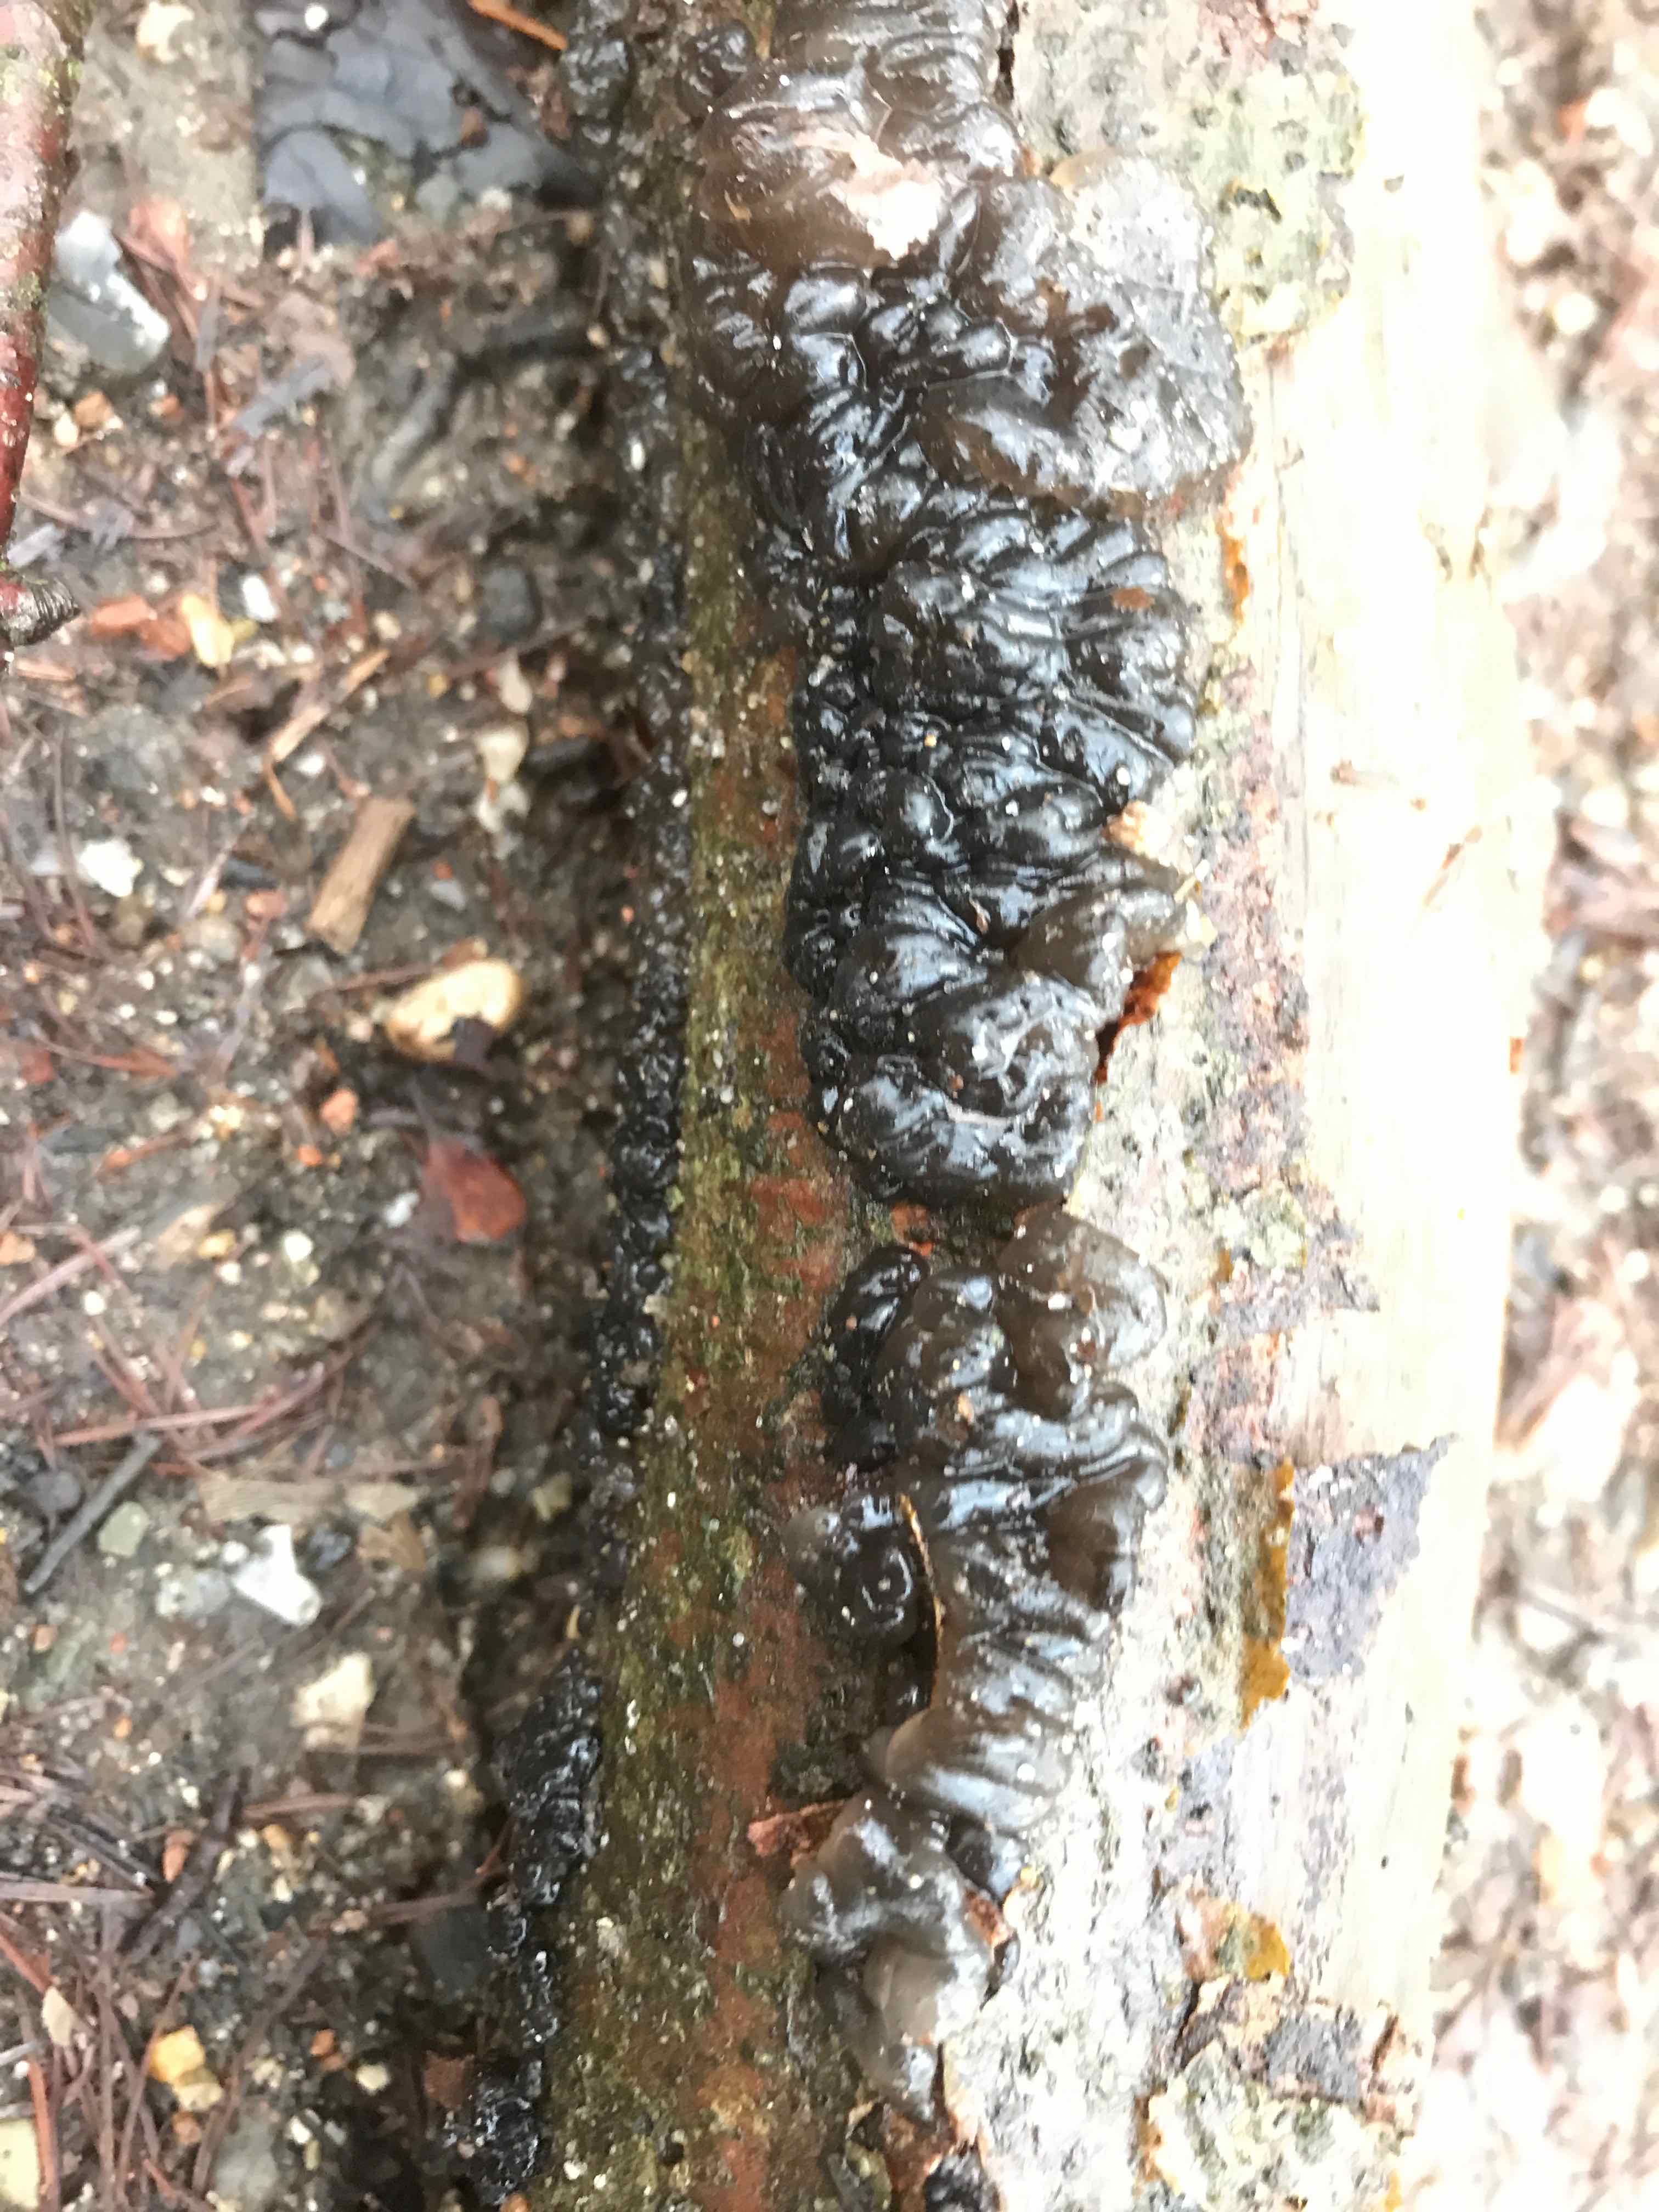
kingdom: Fungi
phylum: Basidiomycota
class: Agaricomycetes
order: Auriculariales
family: Auriculariaceae
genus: Exidia
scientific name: Exidia nigricans
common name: almindelig bævretop
